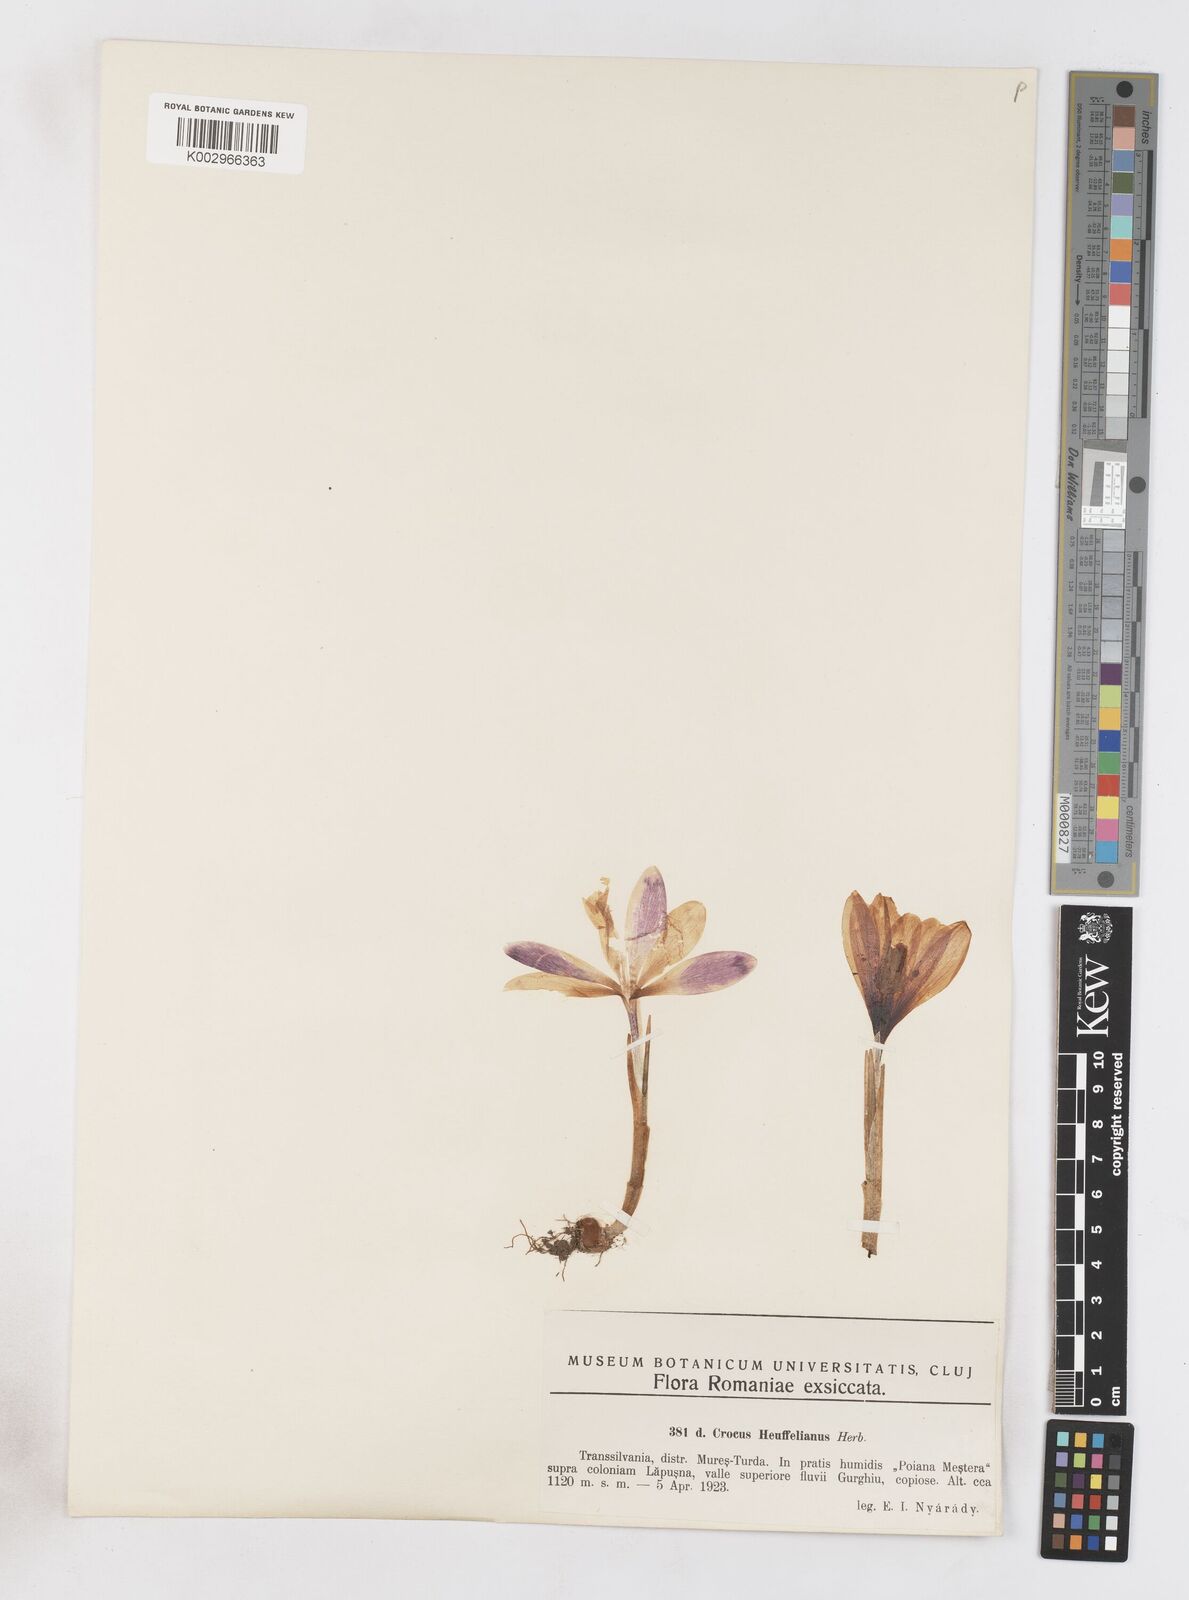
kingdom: Plantae
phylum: Tracheophyta
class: Liliopsida
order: Asparagales
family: Iridaceae
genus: Crocus
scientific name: Crocus vernus
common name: Spring crocus
